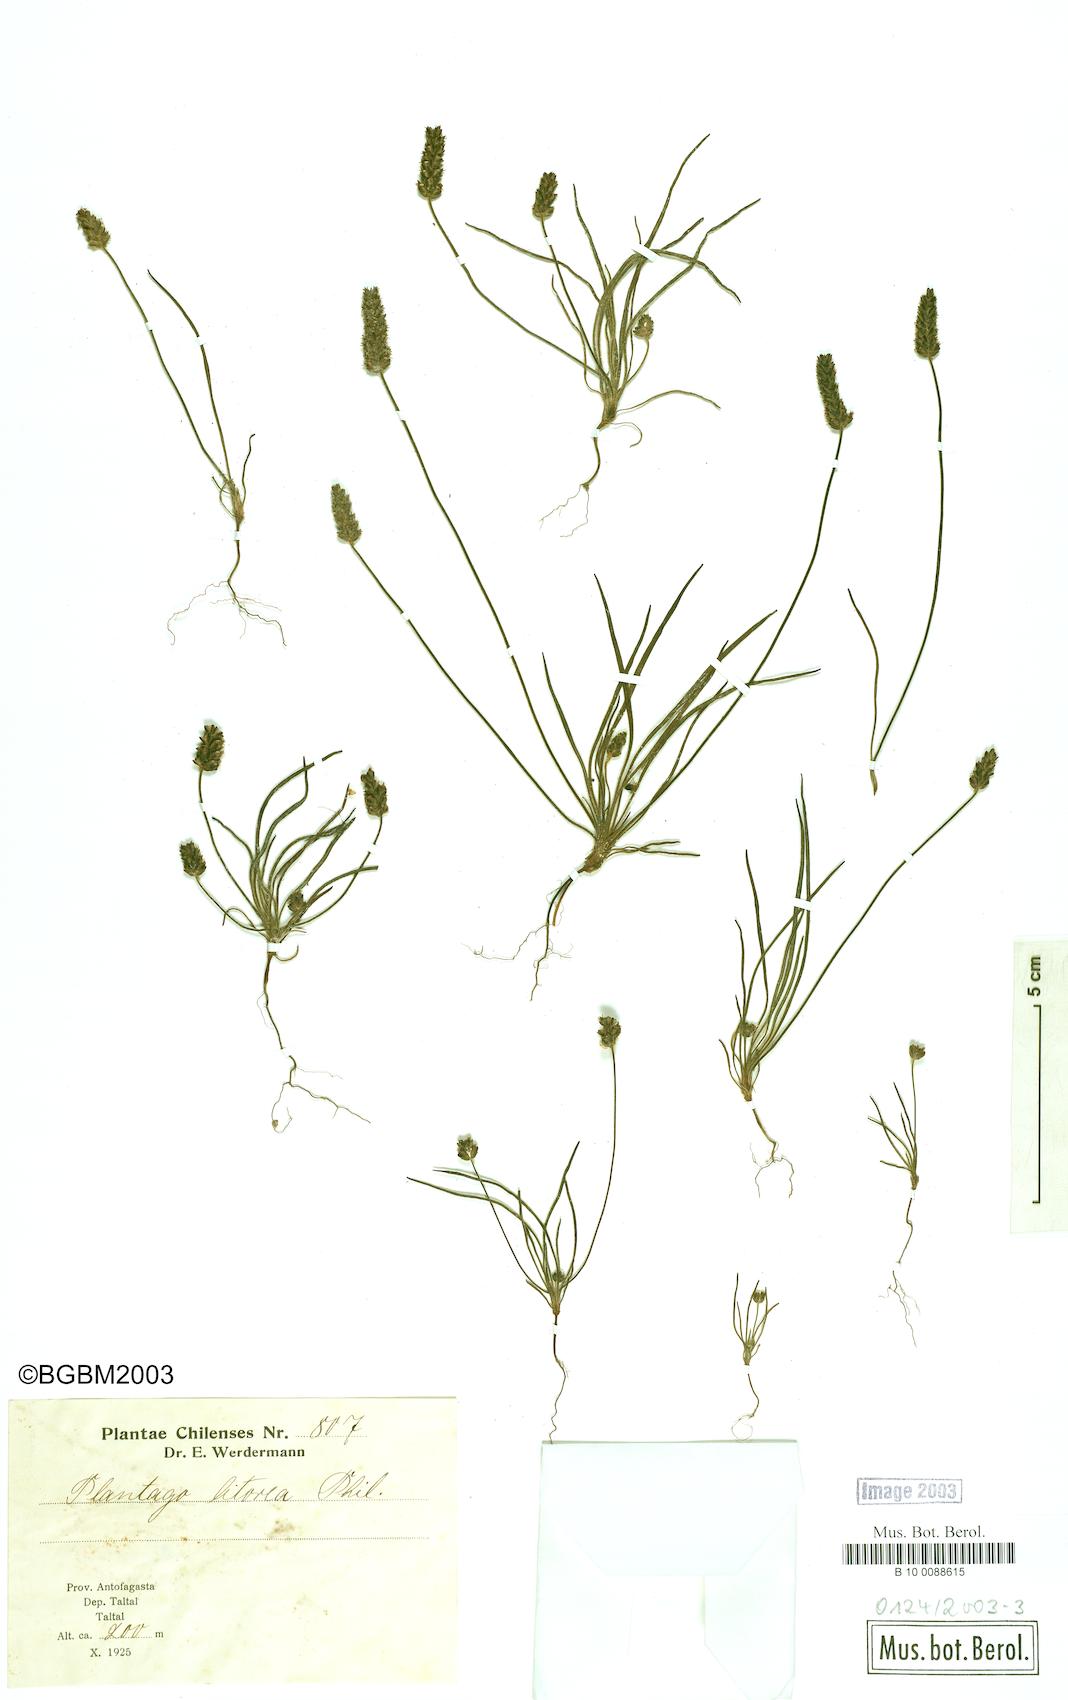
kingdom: Plantae
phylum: Tracheophyta
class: Magnoliopsida
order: Lamiales
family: Plantaginaceae
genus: Plantago
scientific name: Plantago litorea
